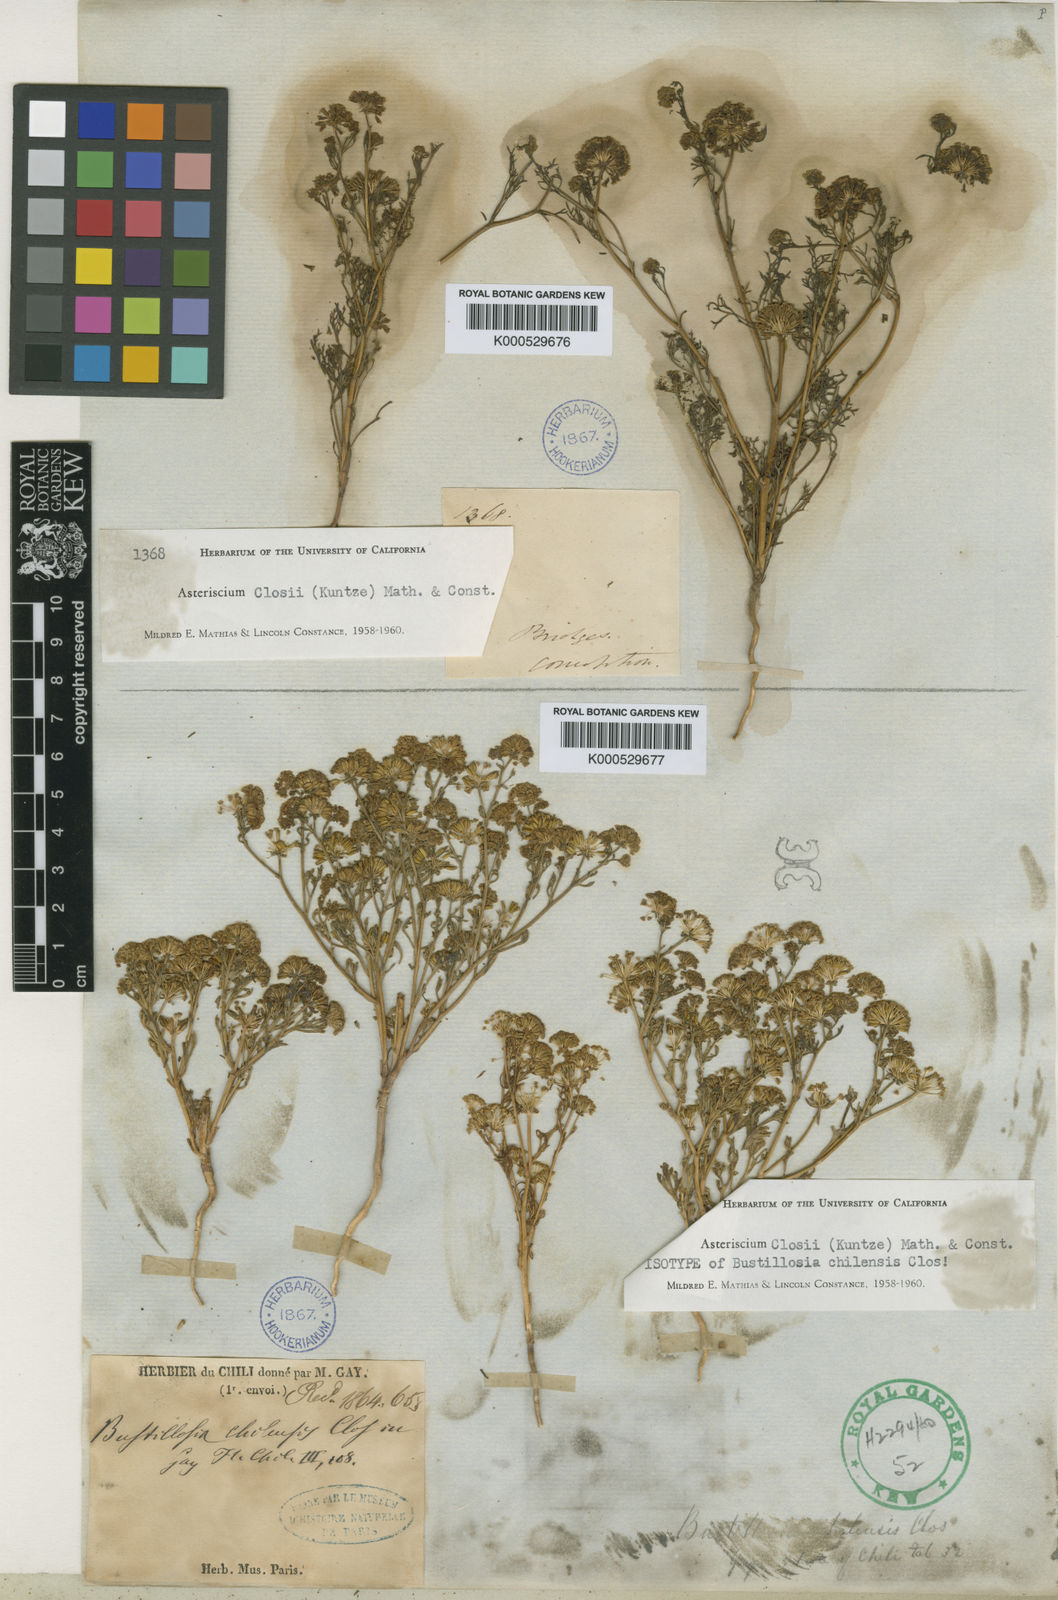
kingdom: Plantae
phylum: Tracheophyta
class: Magnoliopsida
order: Apiales
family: Apiaceae
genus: Asteriscium
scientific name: Asteriscium closii
